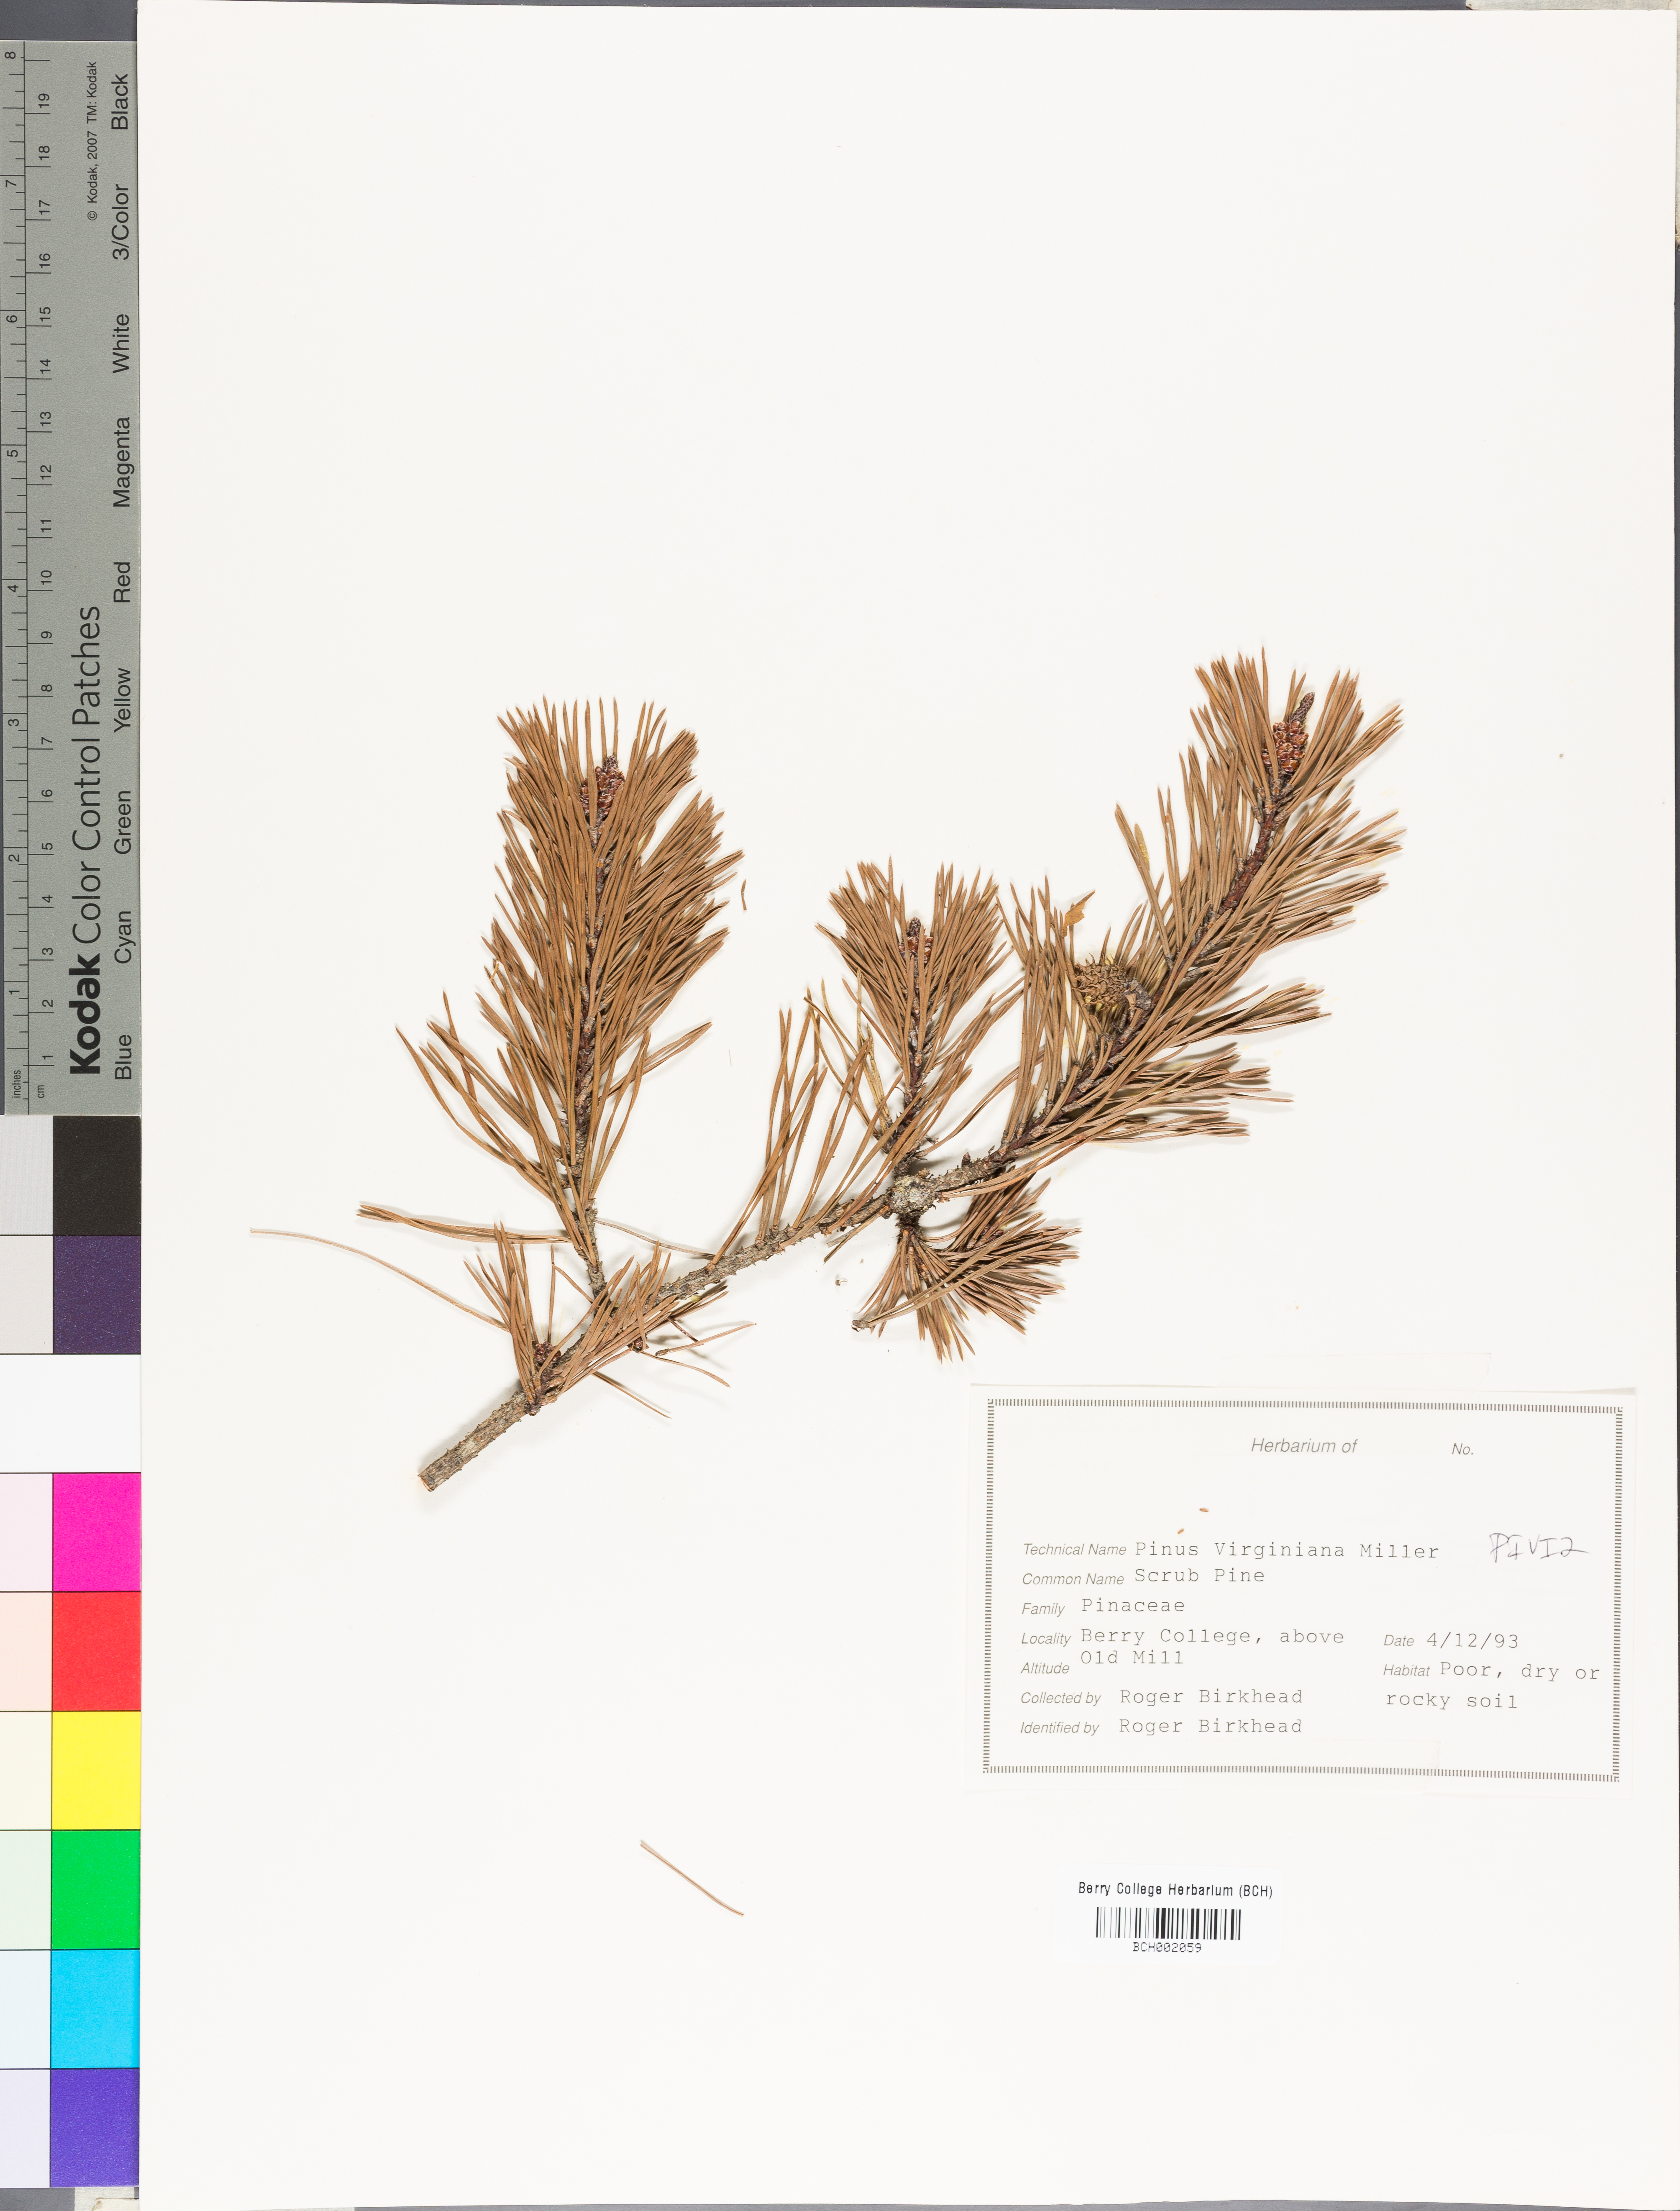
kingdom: Plantae
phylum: Tracheophyta
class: Pinopsida
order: Pinales
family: Pinaceae
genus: Pinus
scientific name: Pinus virginiana
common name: Scrub pine
